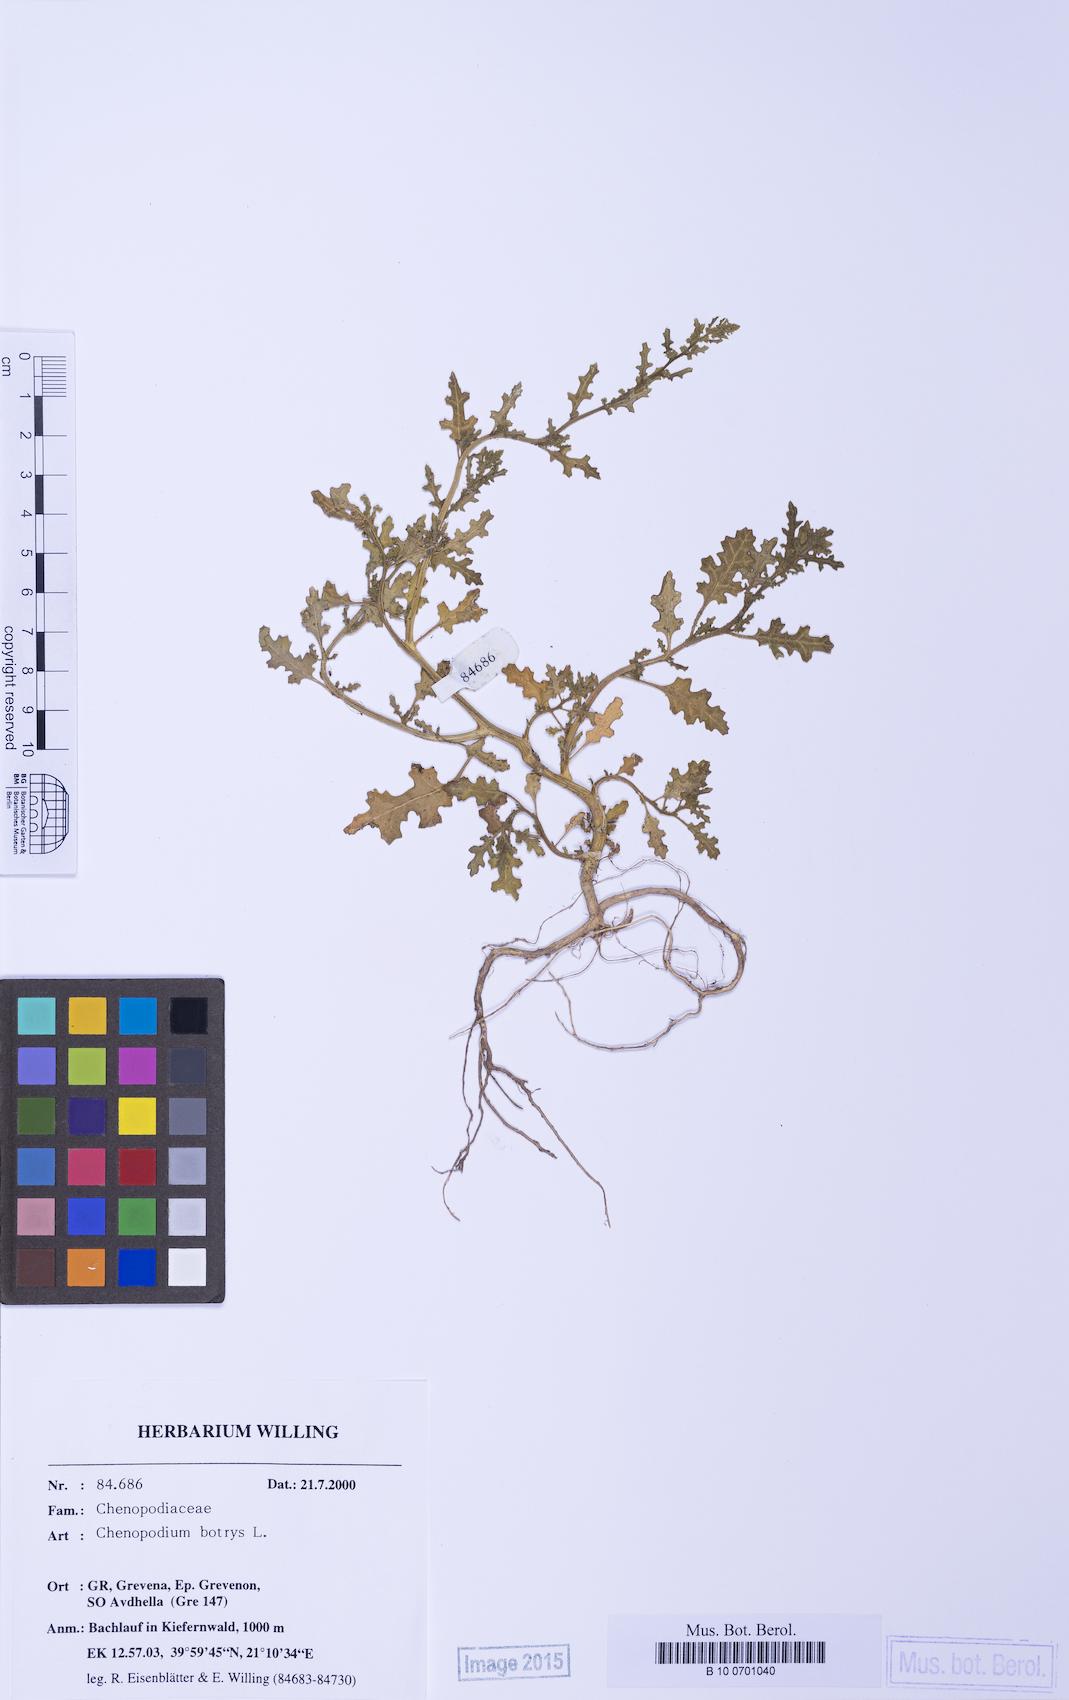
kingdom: Plantae
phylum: Tracheophyta
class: Magnoliopsida
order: Caryophyllales
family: Amaranthaceae
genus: Dysphania
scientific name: Dysphania botrys
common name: Feather-geranium
